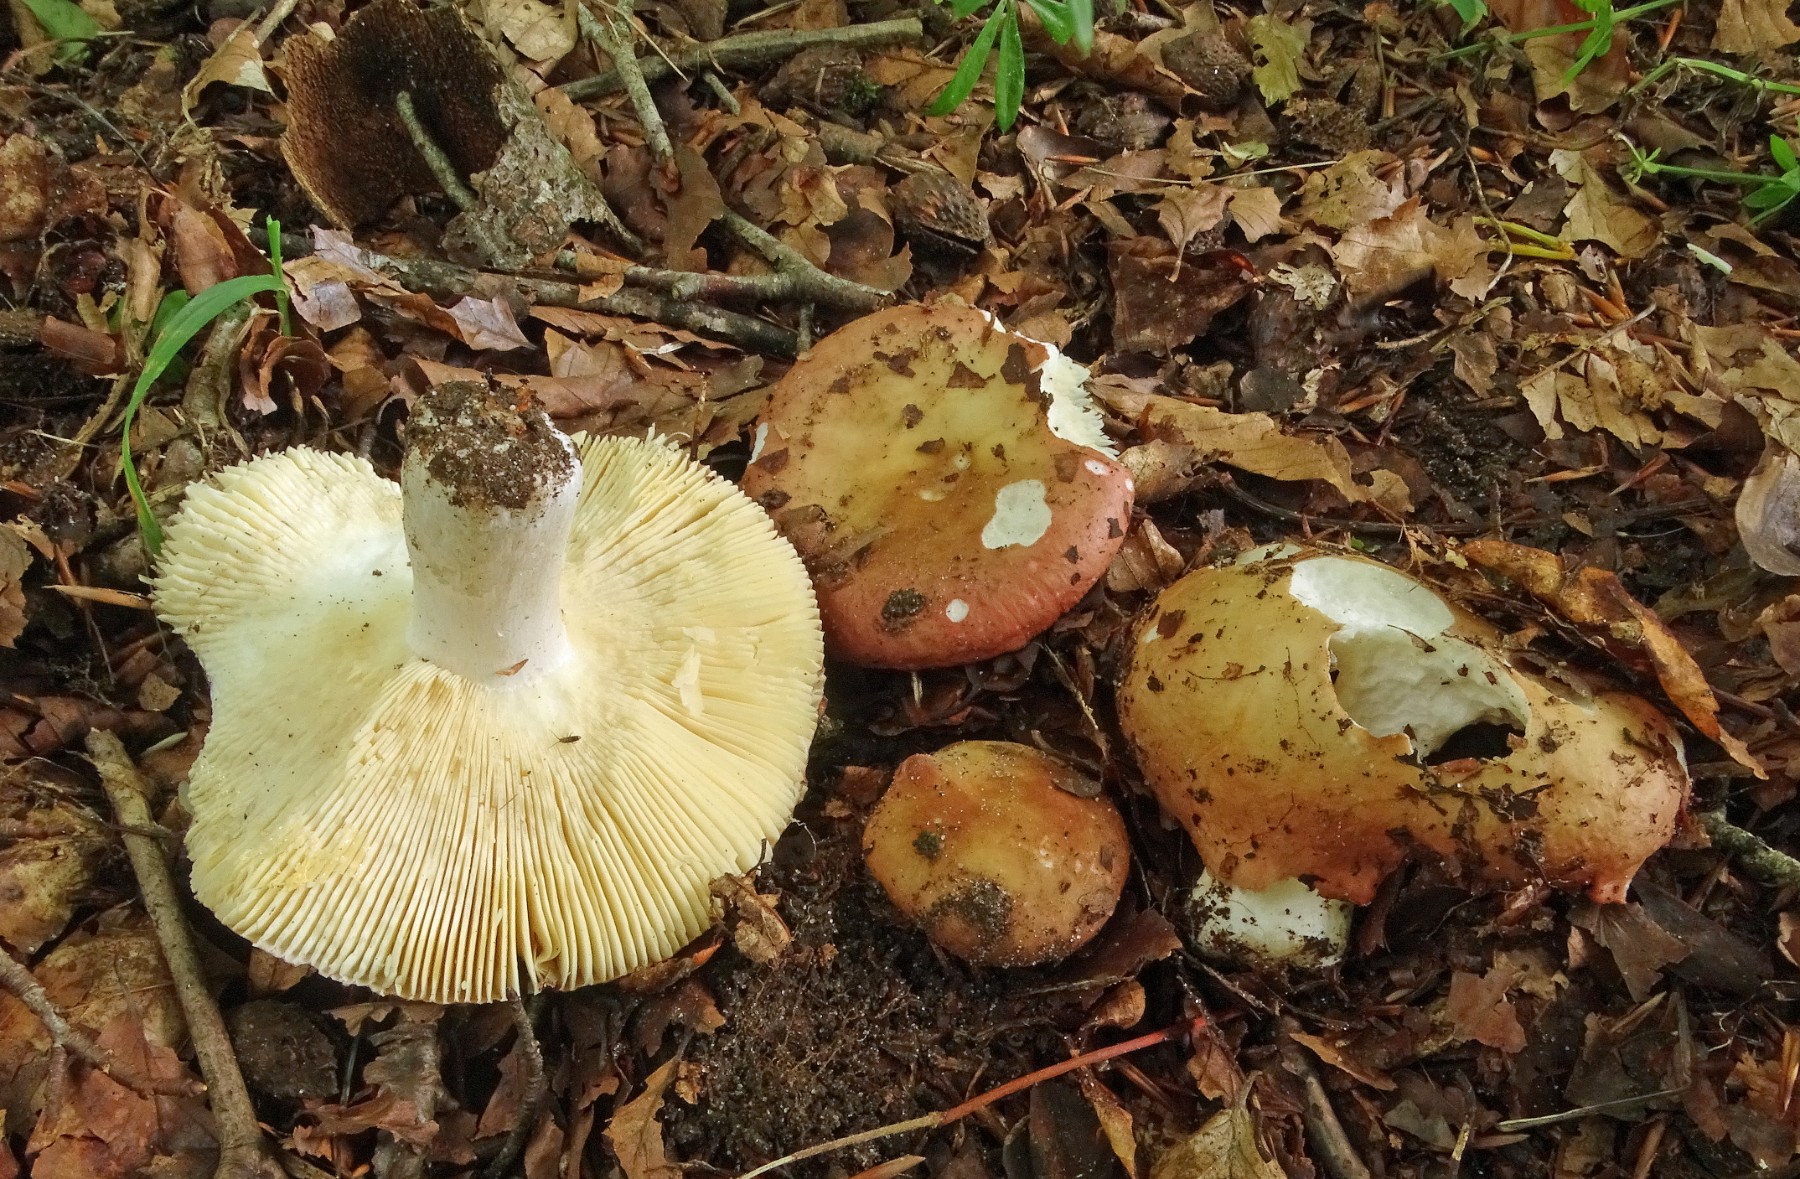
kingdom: Fungi
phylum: Basidiomycota
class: Agaricomycetes
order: Russulales
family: Russulaceae
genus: Russula
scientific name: Russula romellii
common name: romells skørhat
